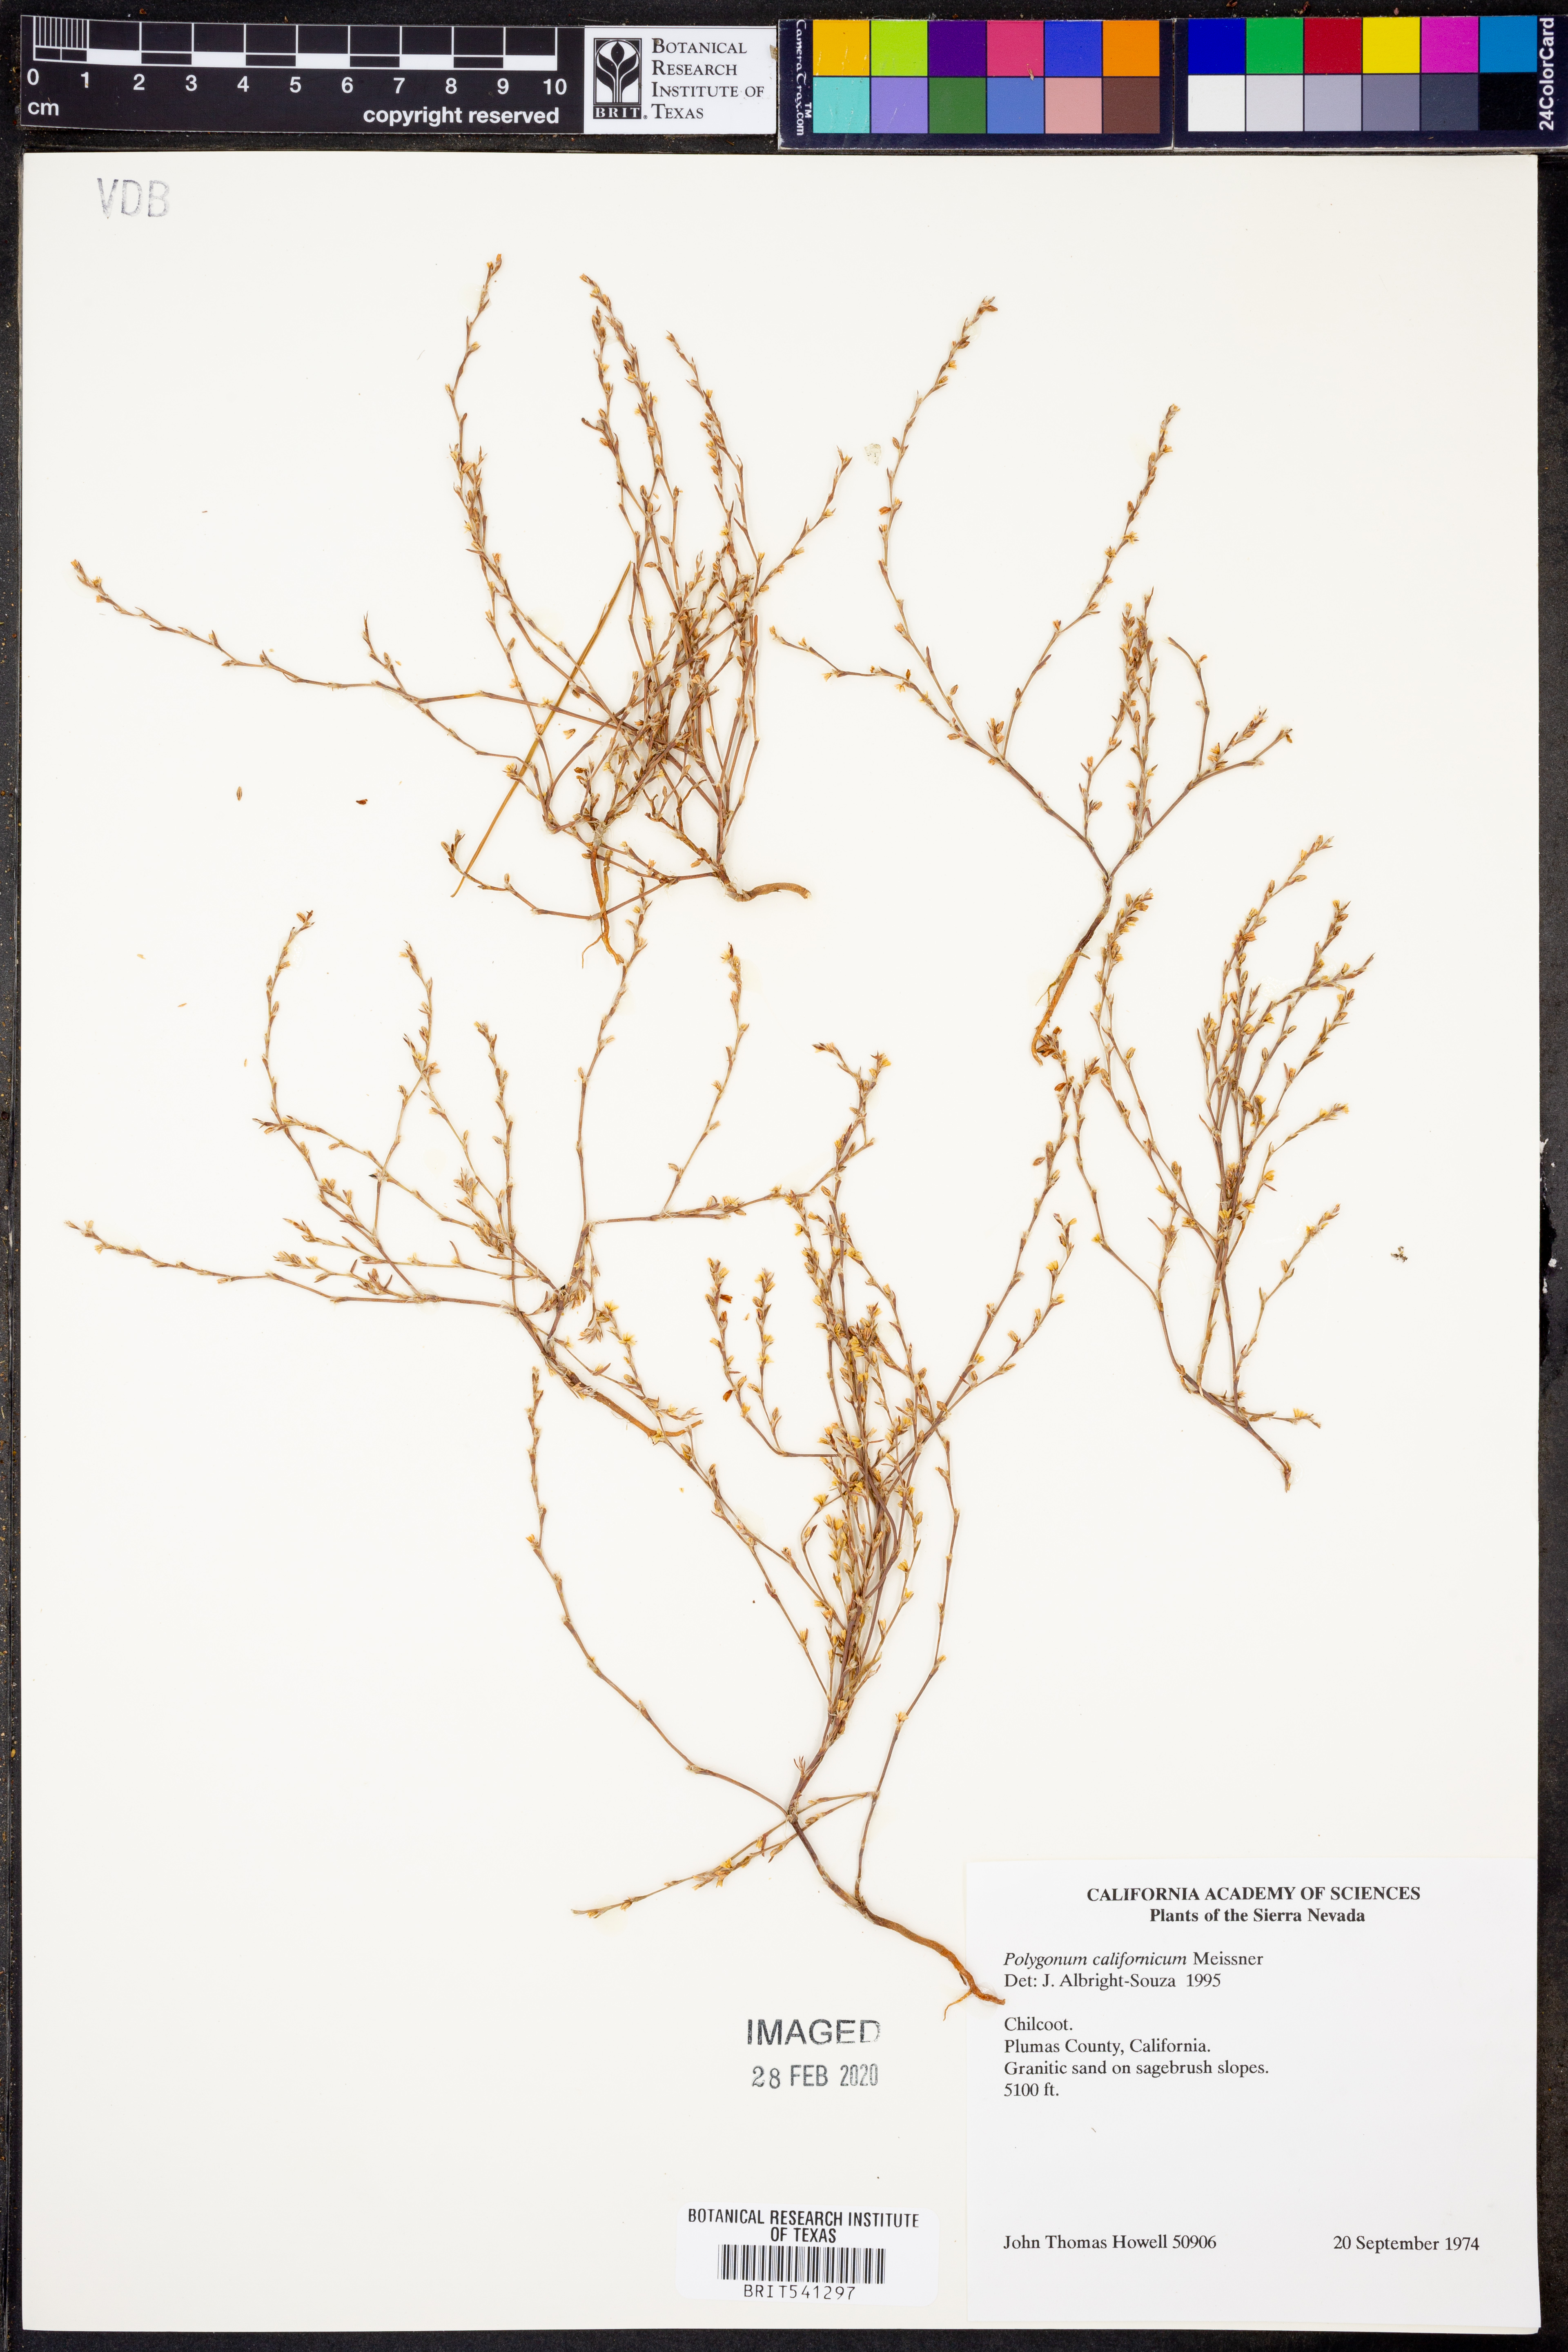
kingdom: Plantae
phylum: Tracheophyta
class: Magnoliopsida
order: Caryophyllales
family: Polygonaceae
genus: Polygonum
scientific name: Polygonum californicum
